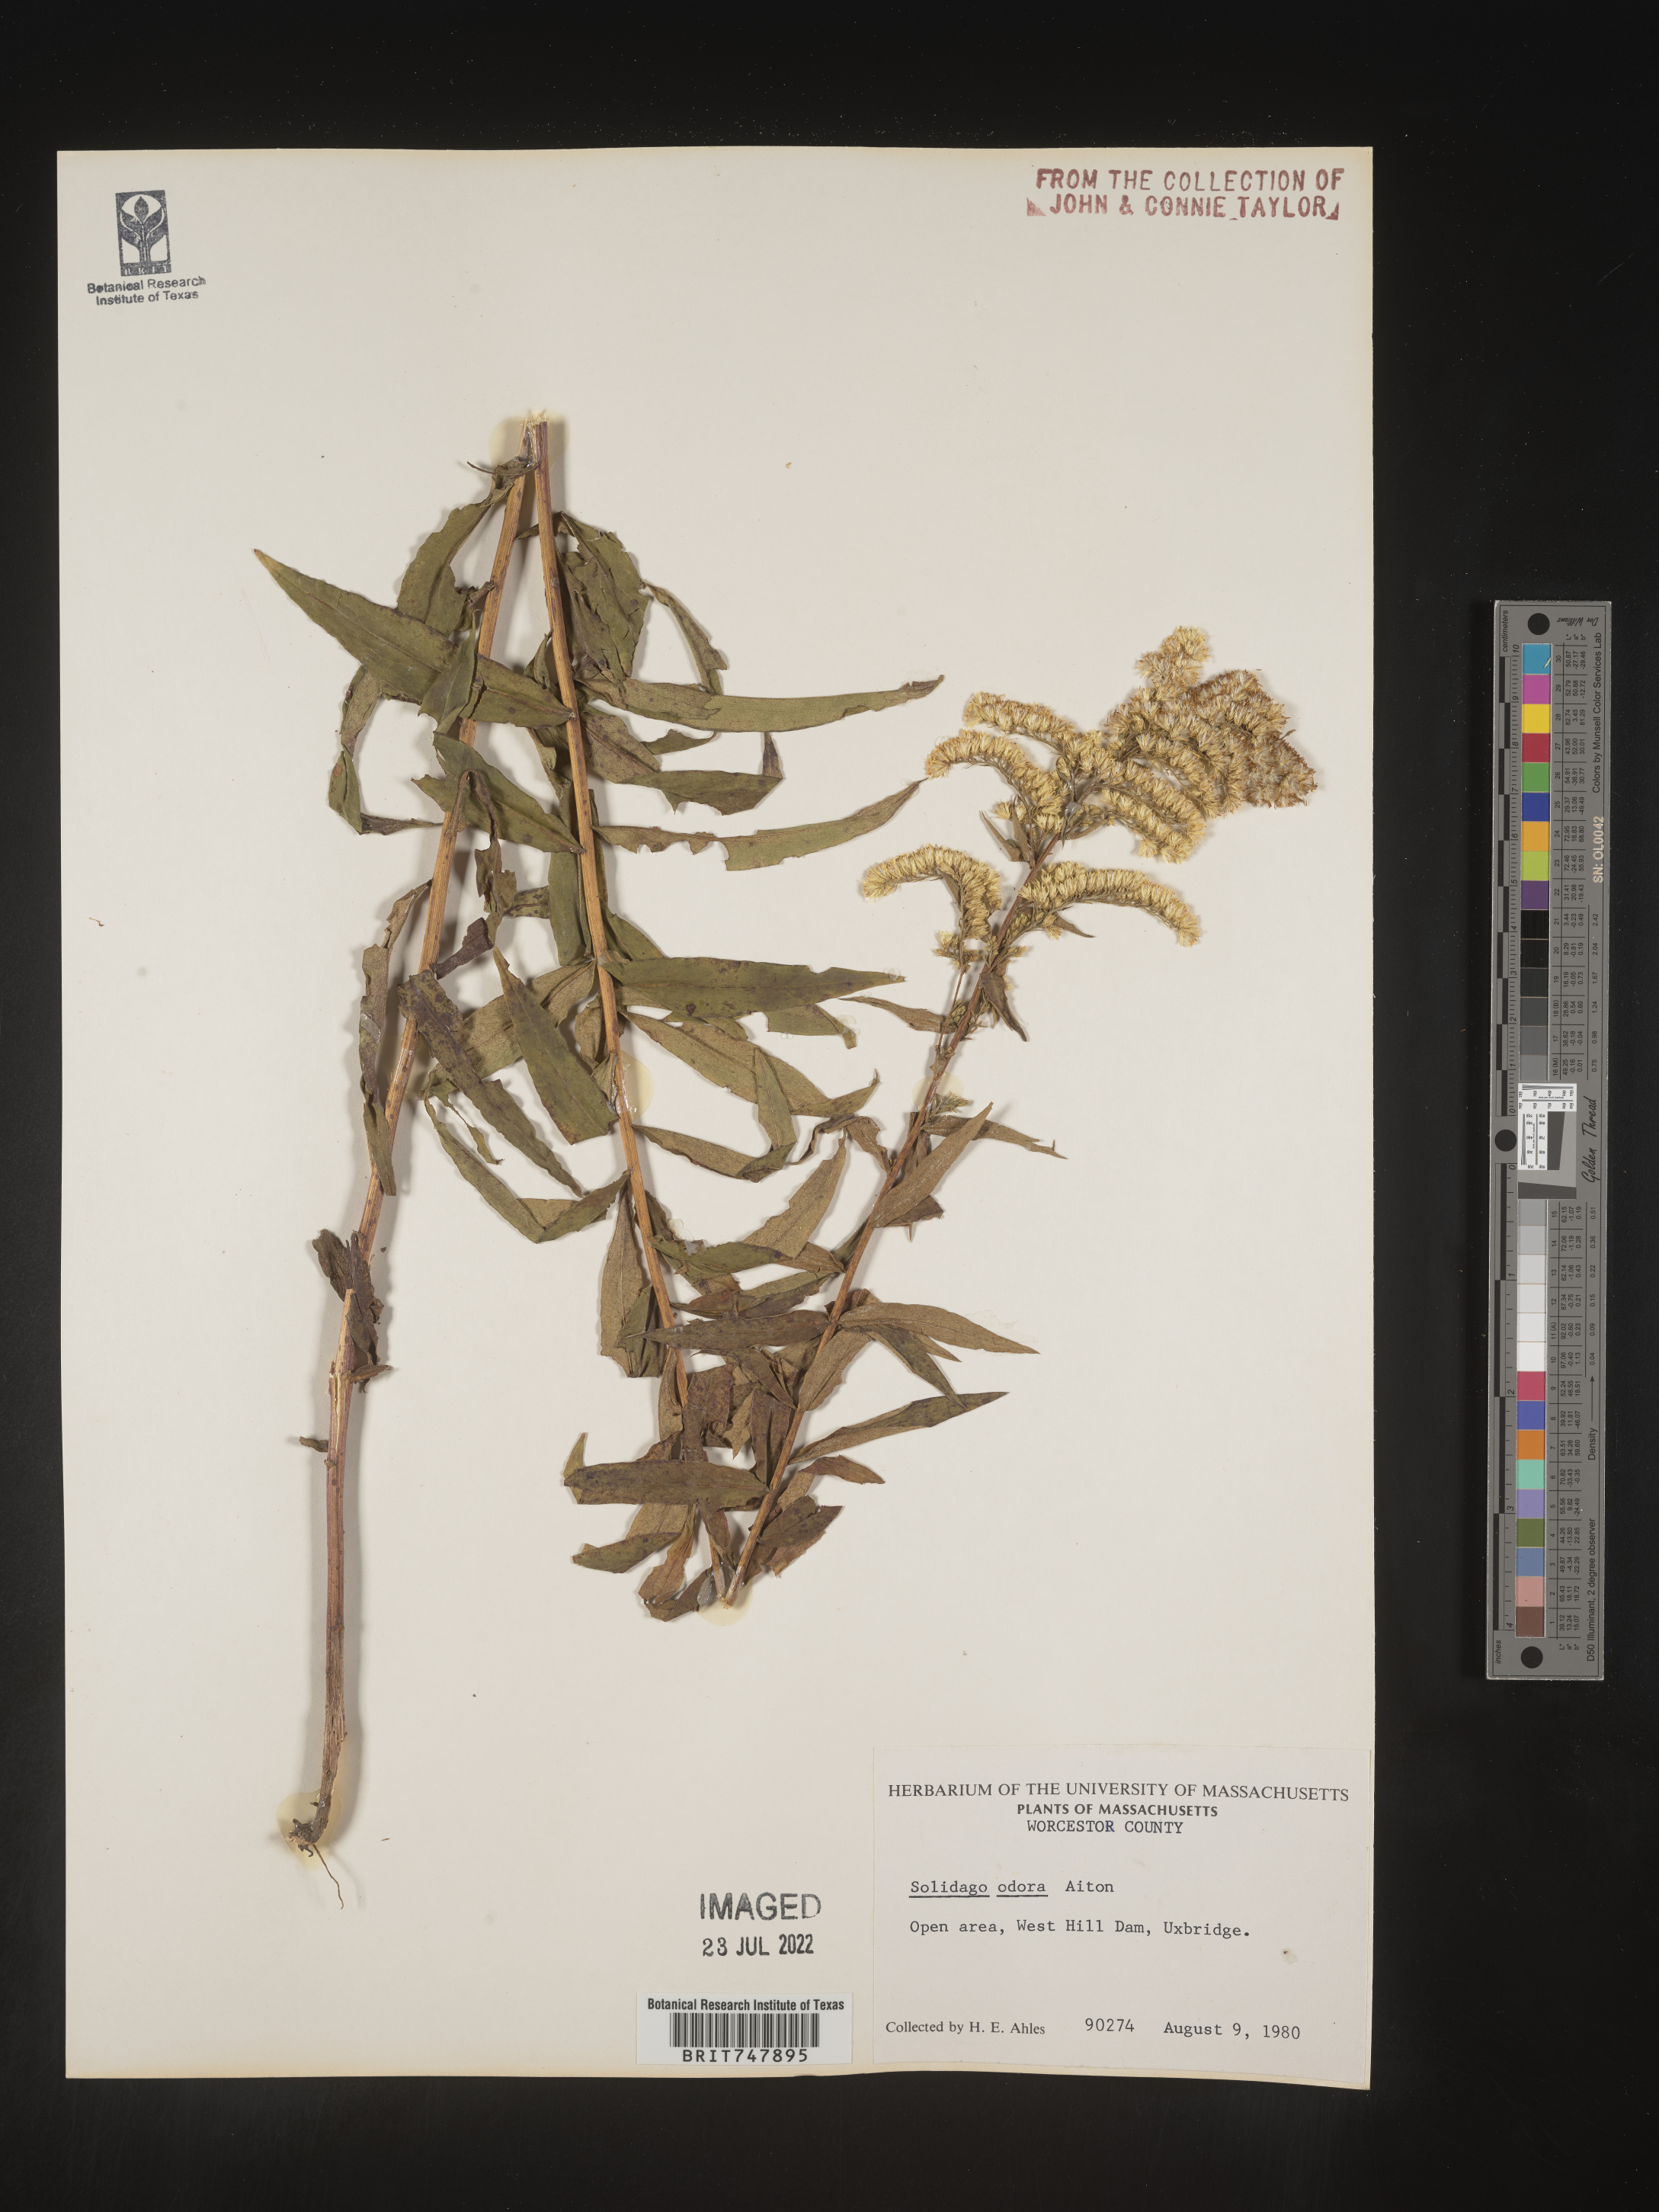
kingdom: Plantae
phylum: Tracheophyta
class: Magnoliopsida
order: Asterales
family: Asteraceae
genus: Solidago
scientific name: Solidago odora
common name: Anise-scented goldenrod
